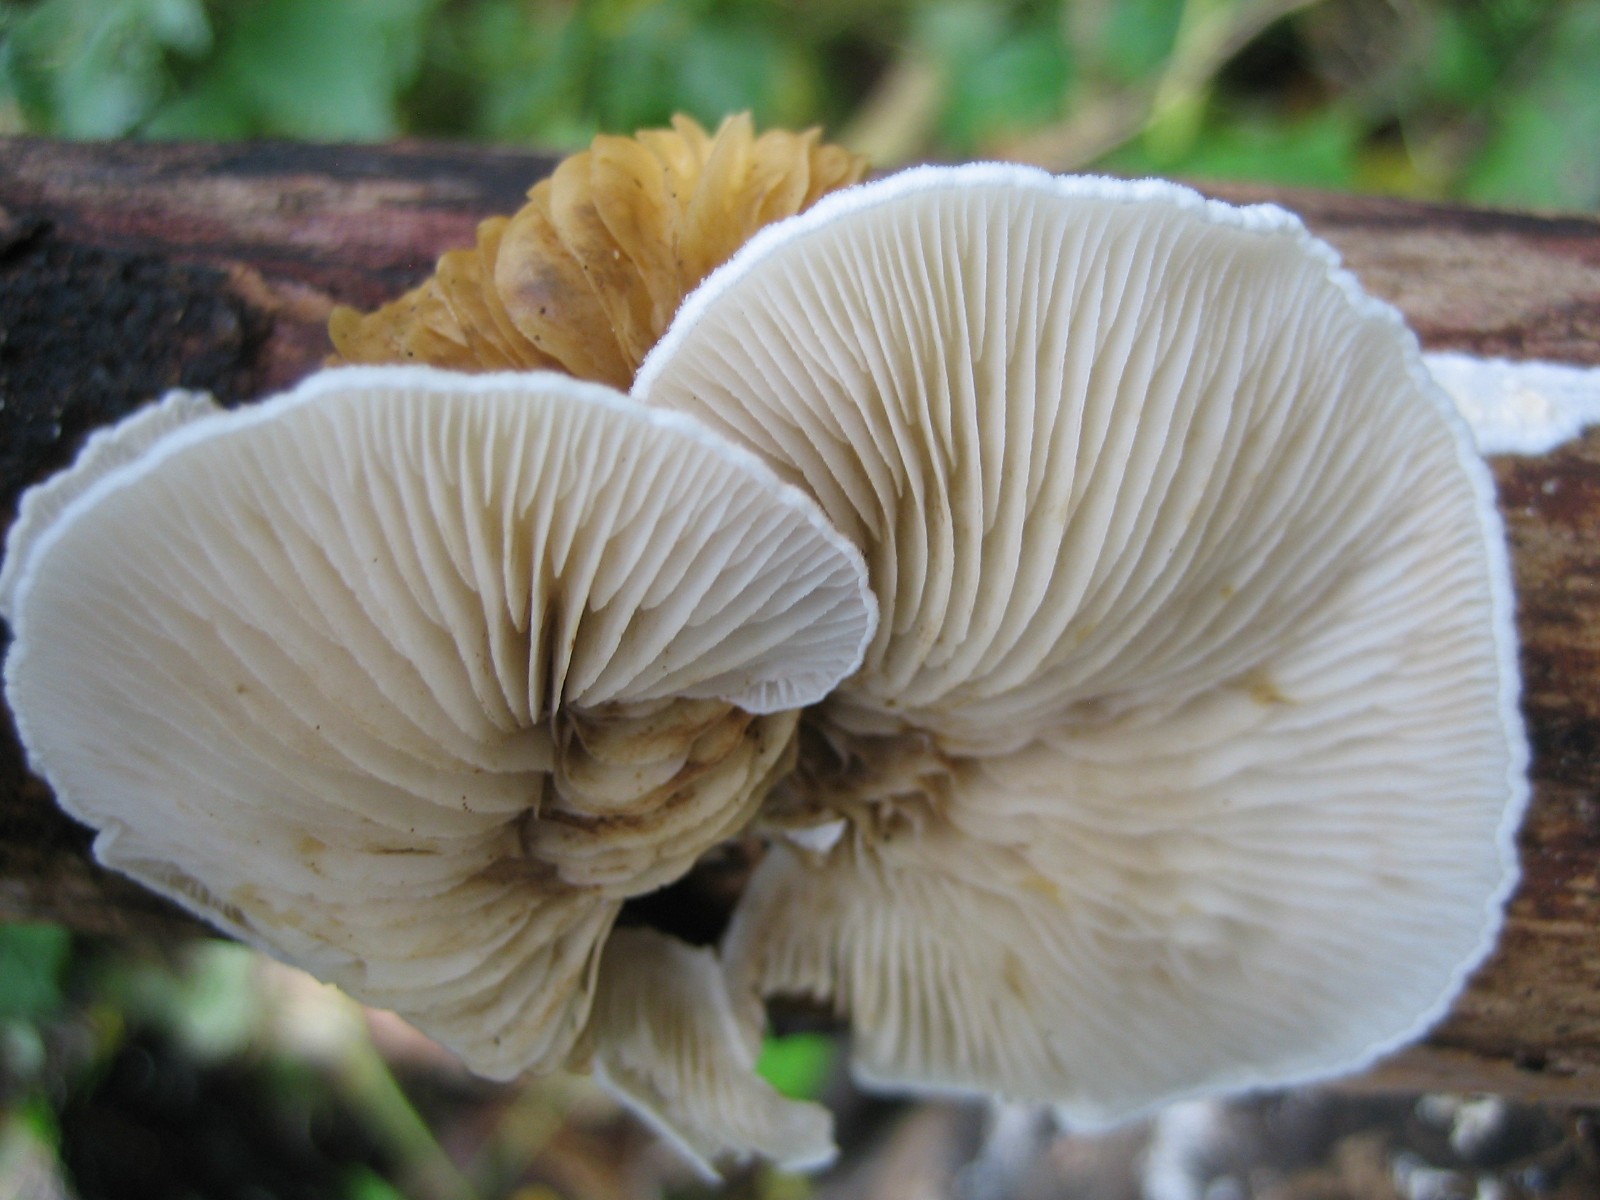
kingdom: Fungi
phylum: Basidiomycota
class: Agaricomycetes
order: Agaricales
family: Crepidotaceae
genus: Crepidotus
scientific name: Crepidotus
